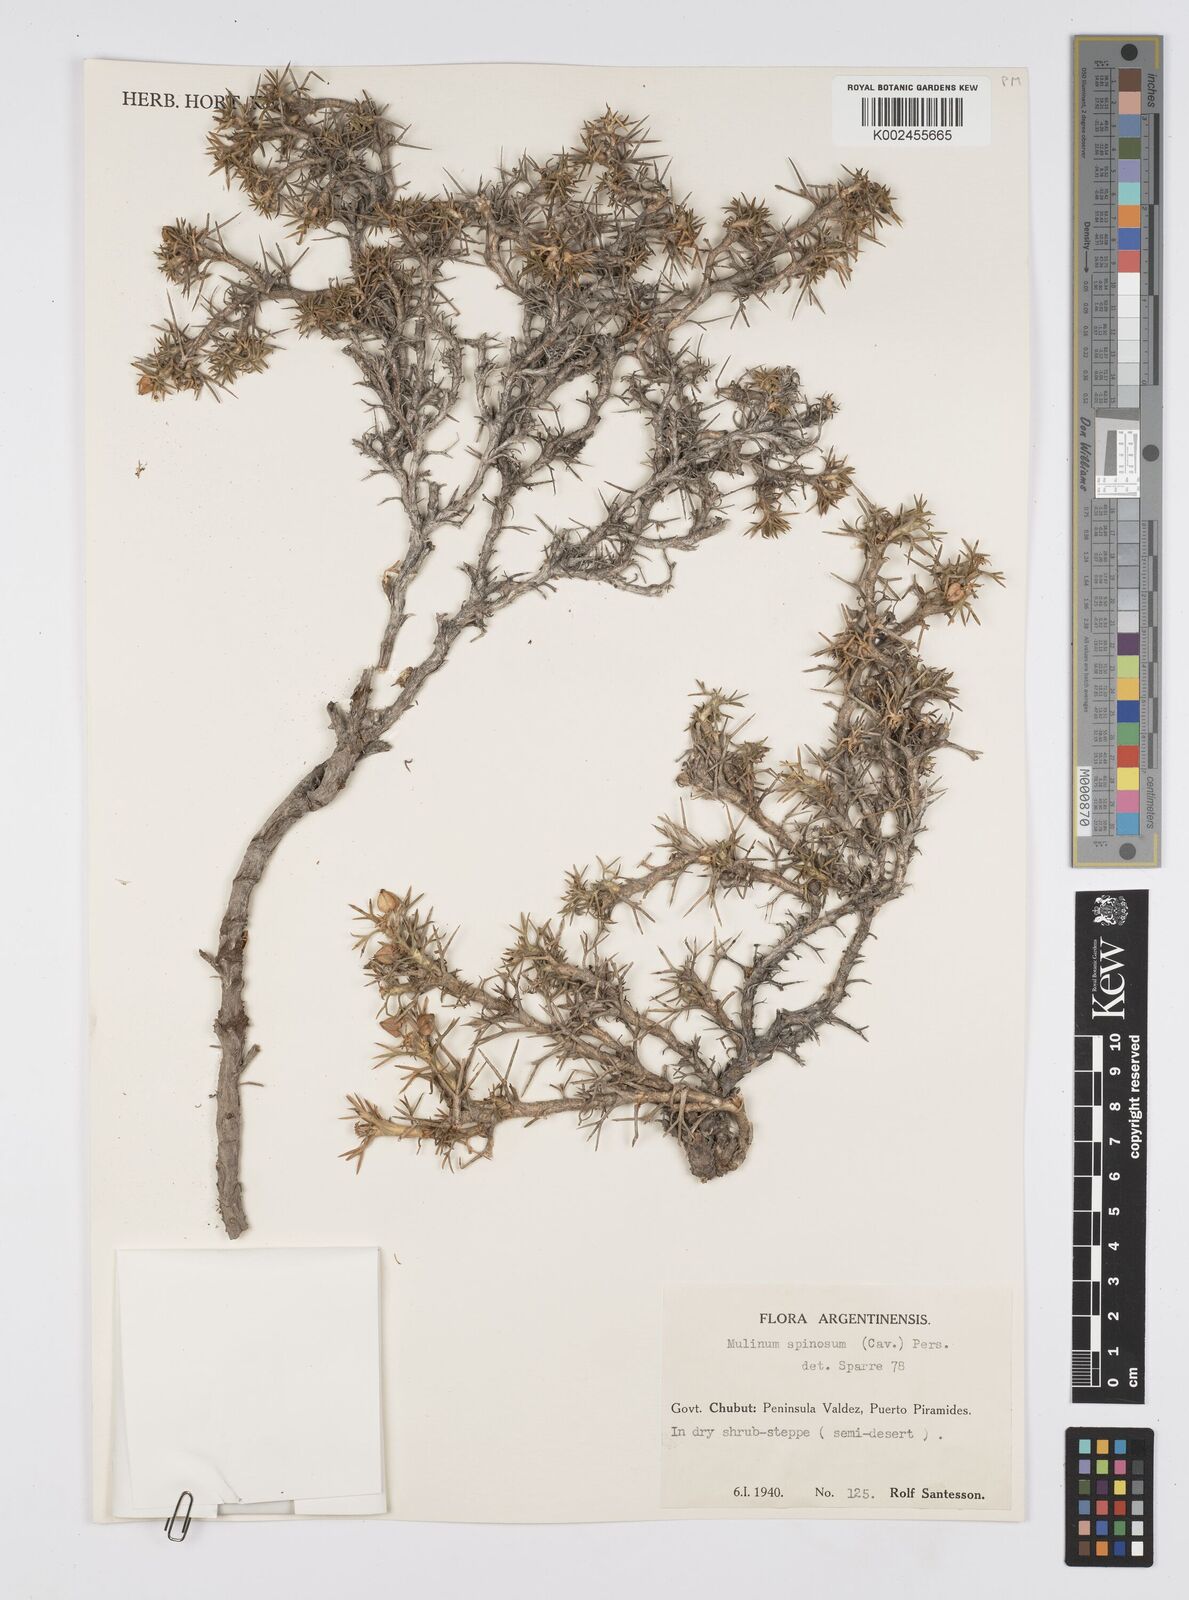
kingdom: Plantae
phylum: Tracheophyta
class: Magnoliopsida
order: Apiales
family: Apiaceae
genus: Azorella
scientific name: Azorella prolifera
